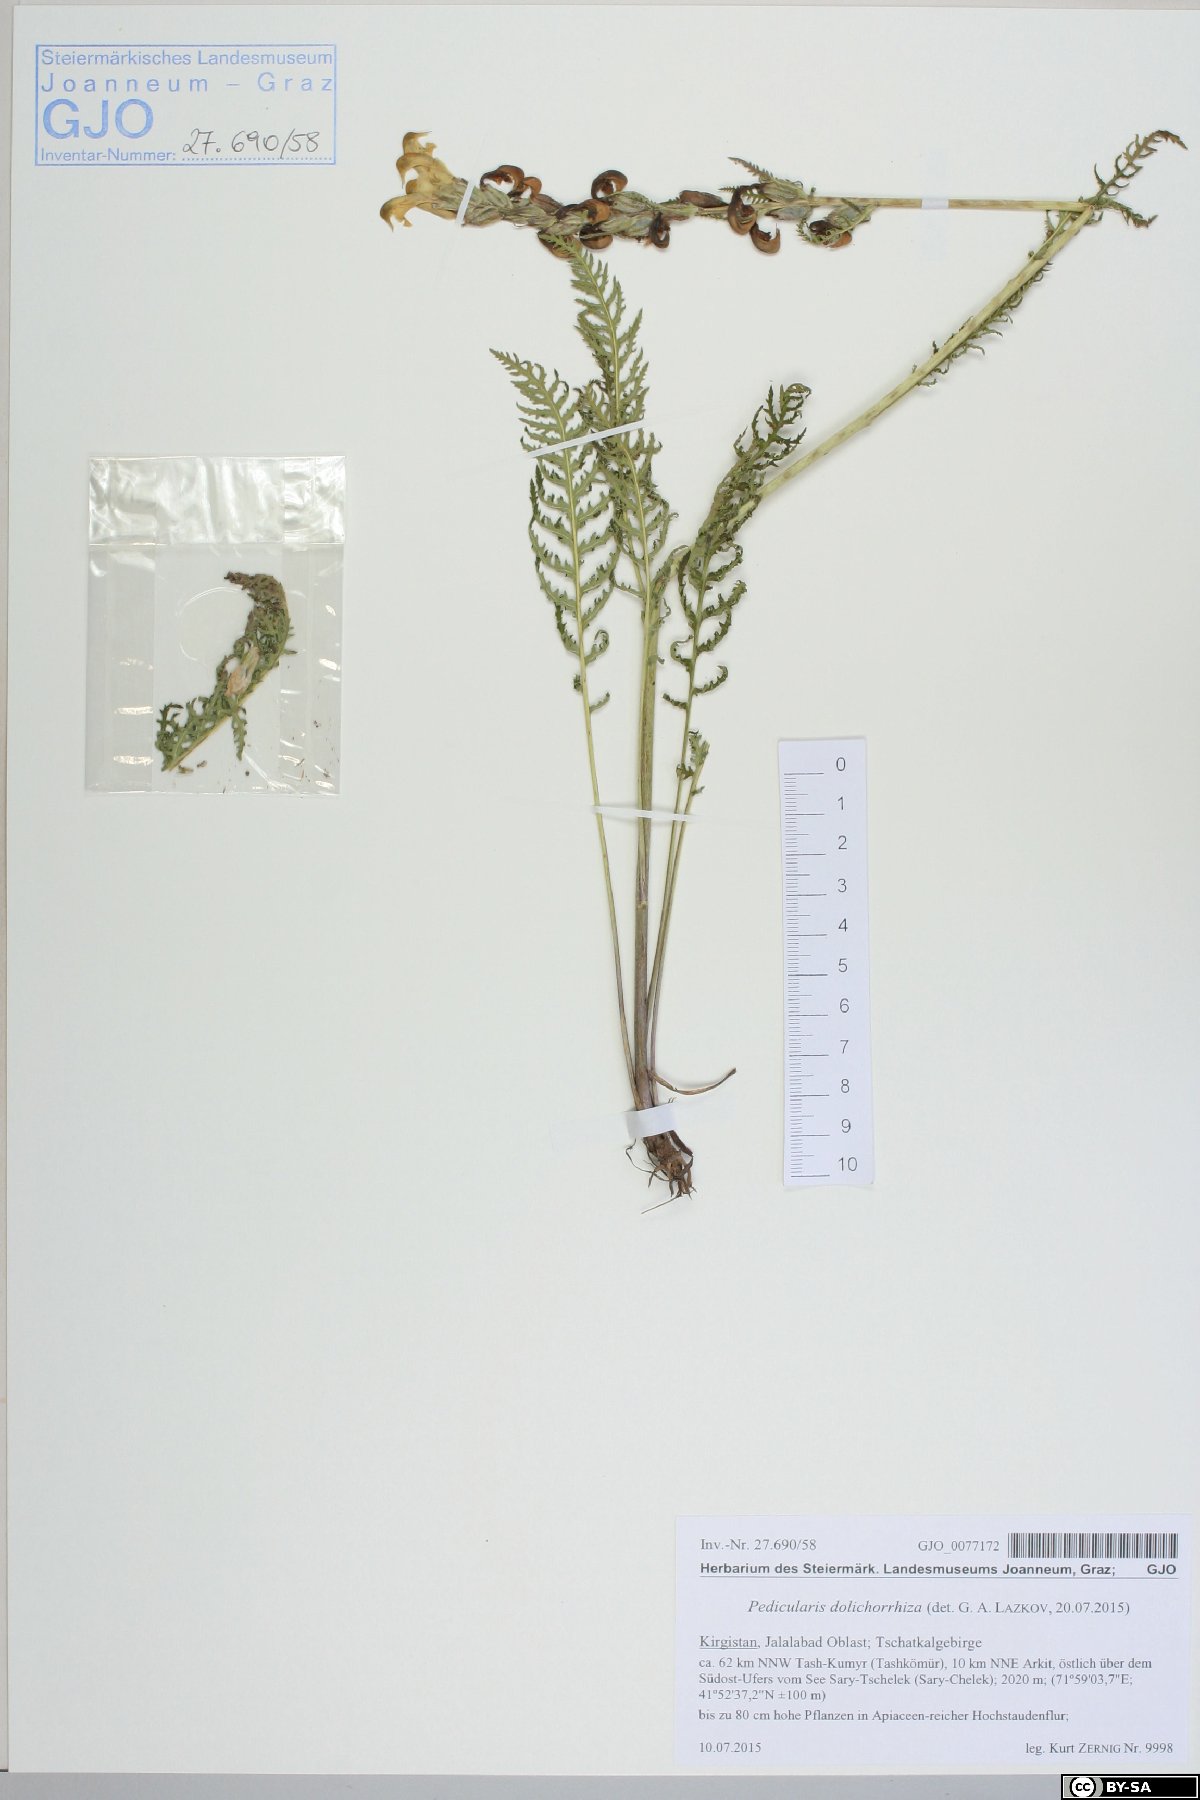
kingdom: Plantae
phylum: Tracheophyta
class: Magnoliopsida
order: Lamiales
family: Orobanchaceae
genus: Pedicularis
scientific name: Pedicularis dolichorrhiza
